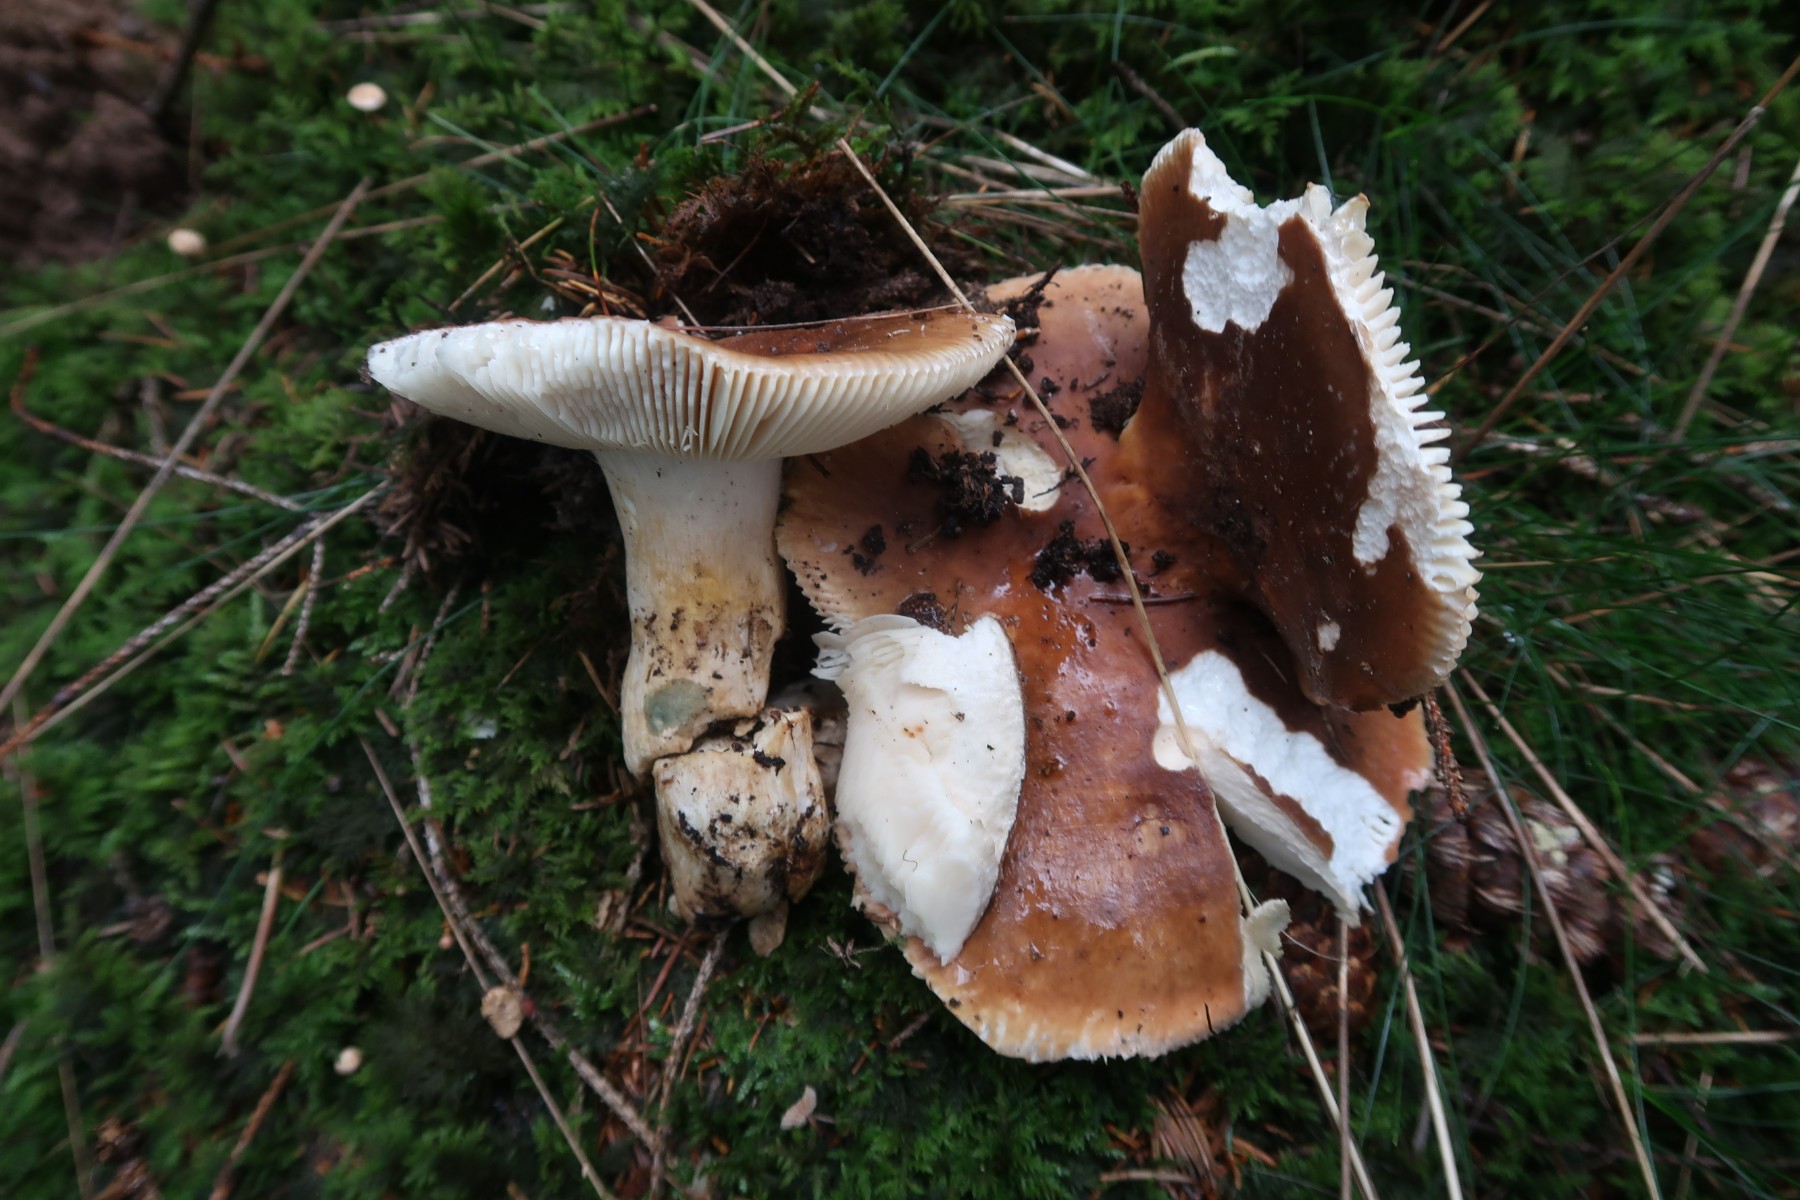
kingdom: Fungi
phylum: Basidiomycota
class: Agaricomycetes
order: Russulales
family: Russulaceae
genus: Russula
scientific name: Russula mustelina
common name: brun skørhat
